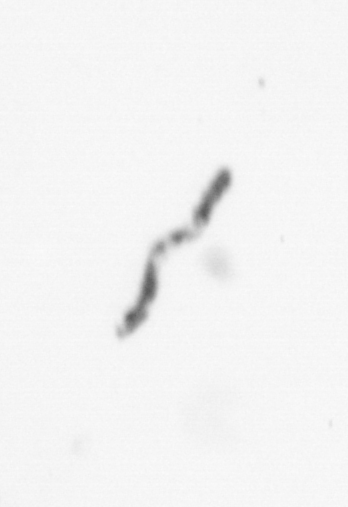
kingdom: Chromista
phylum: Ochrophyta
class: Bacillariophyceae
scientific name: Bacillariophyceae
